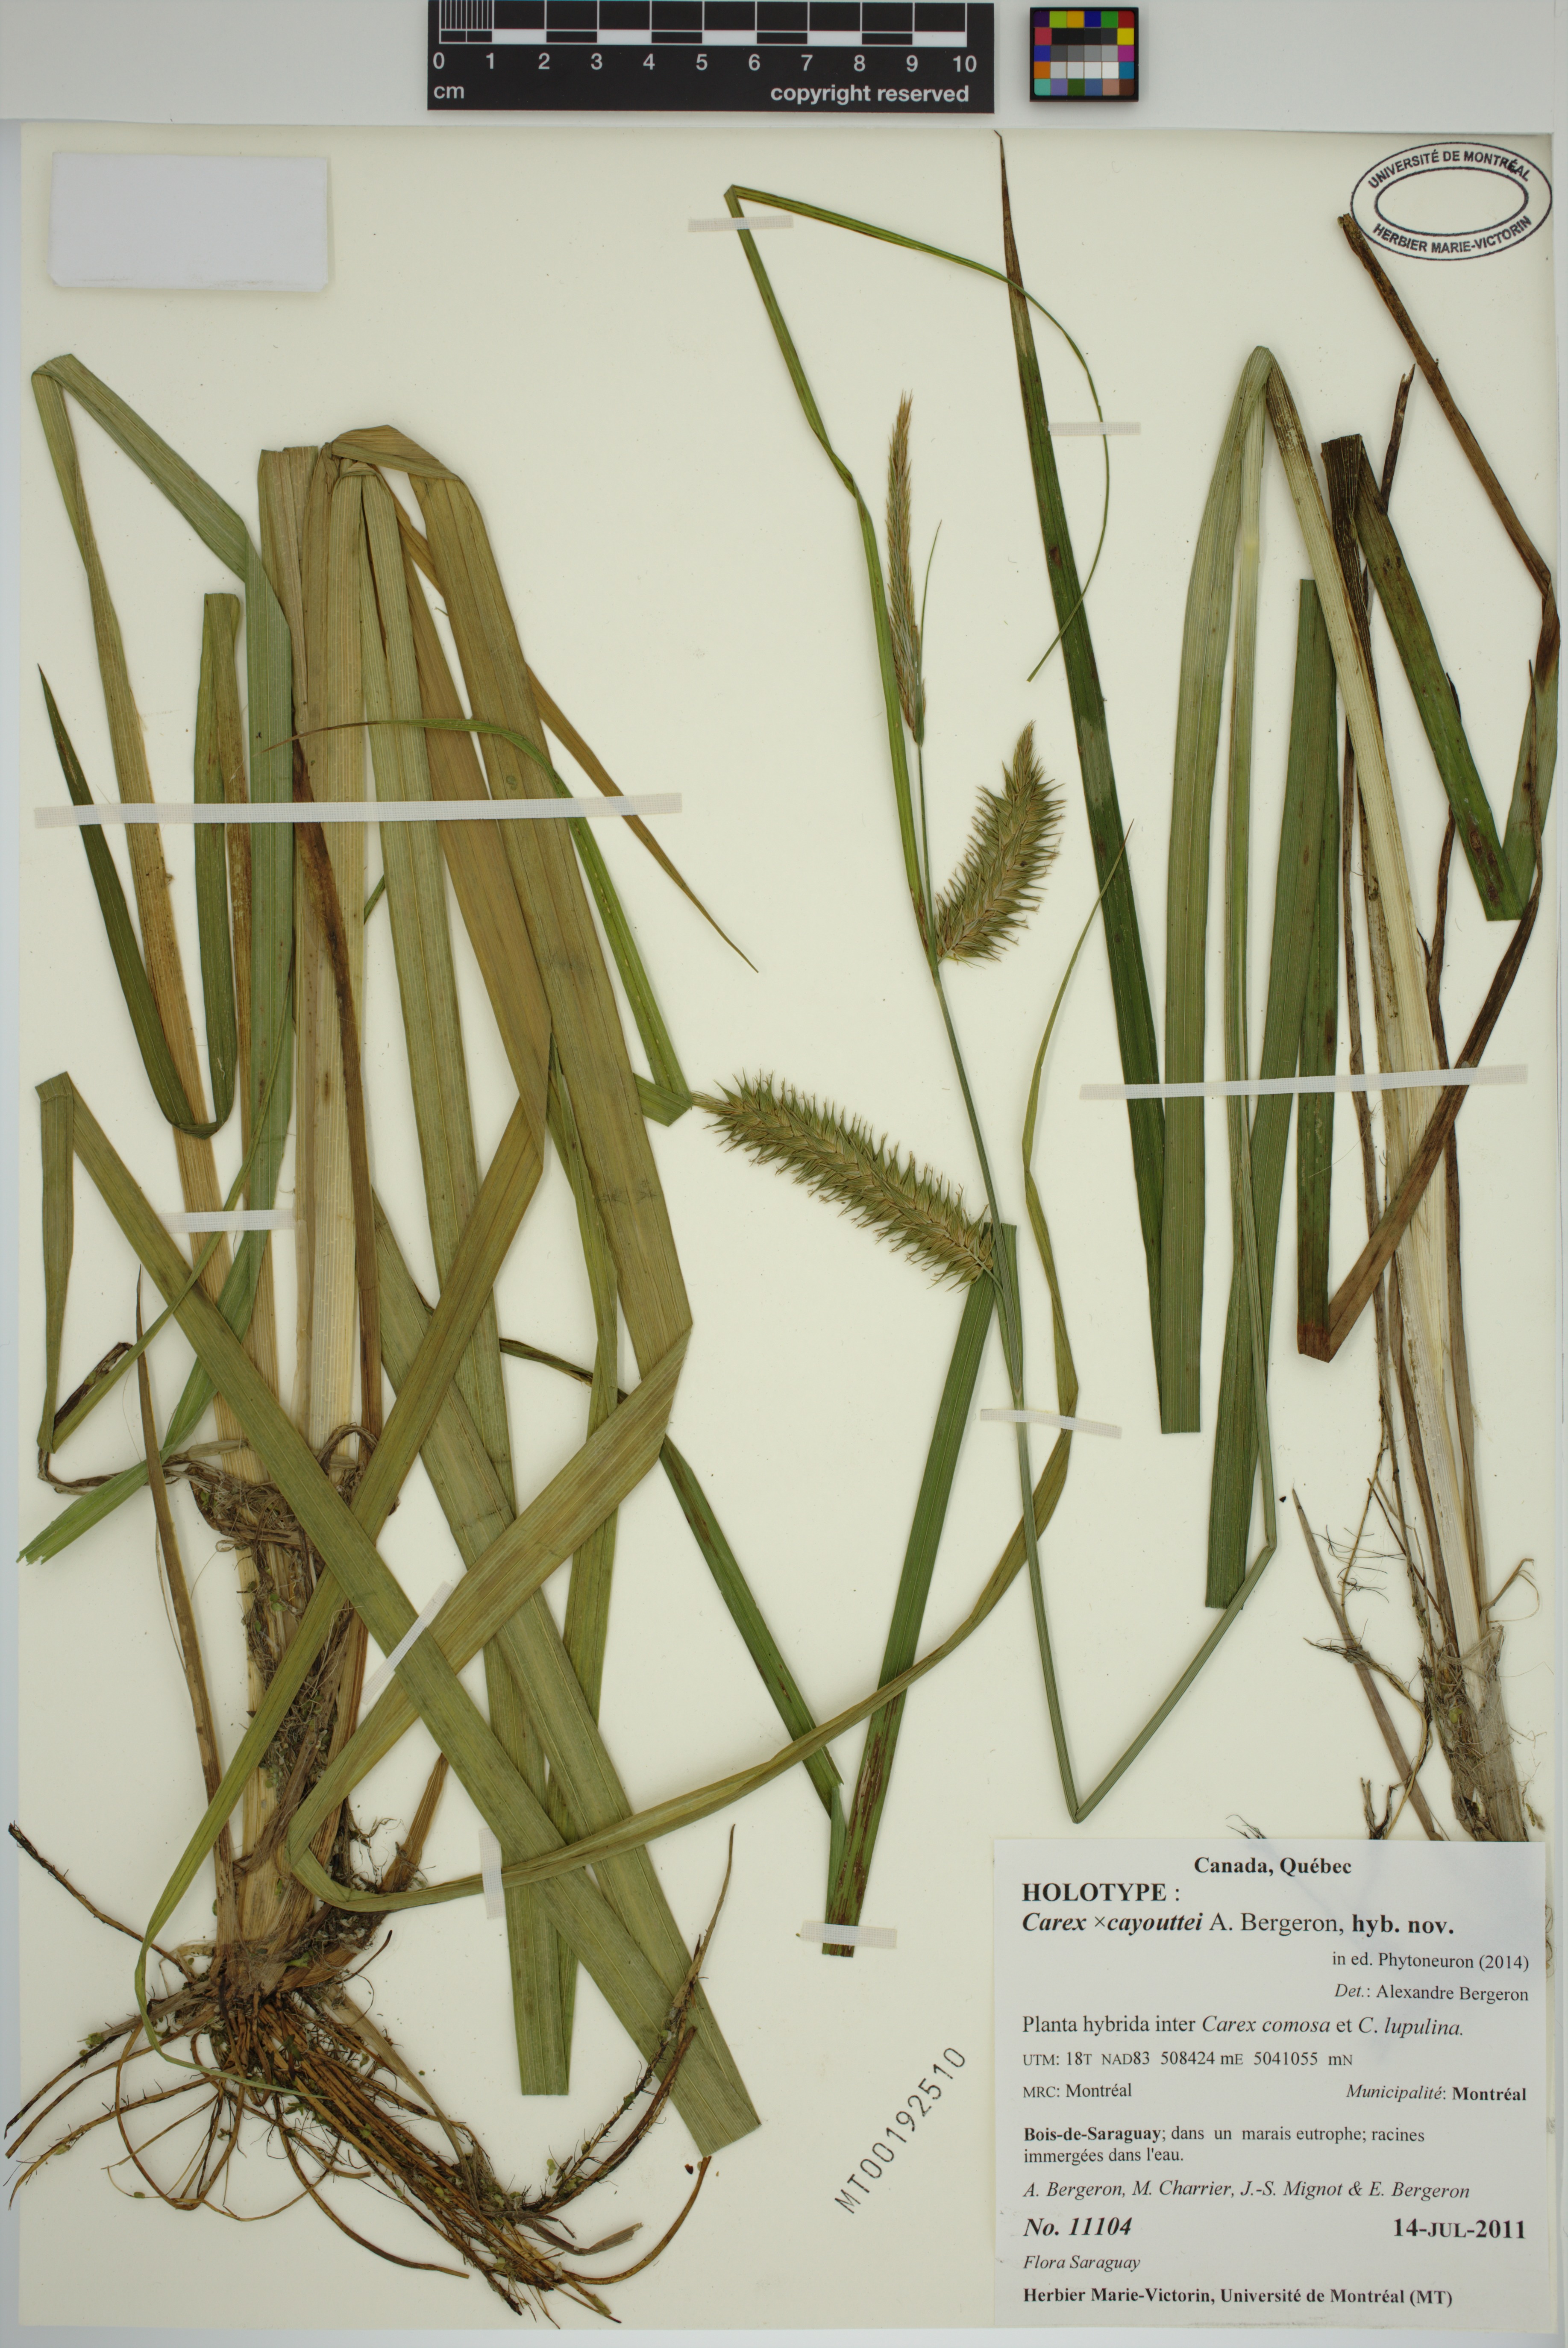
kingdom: Plantae
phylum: Tracheophyta
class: Liliopsida
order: Poales
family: Cyperaceae
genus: Carex
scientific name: Carex cayouettei
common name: Cayouette's sedge
